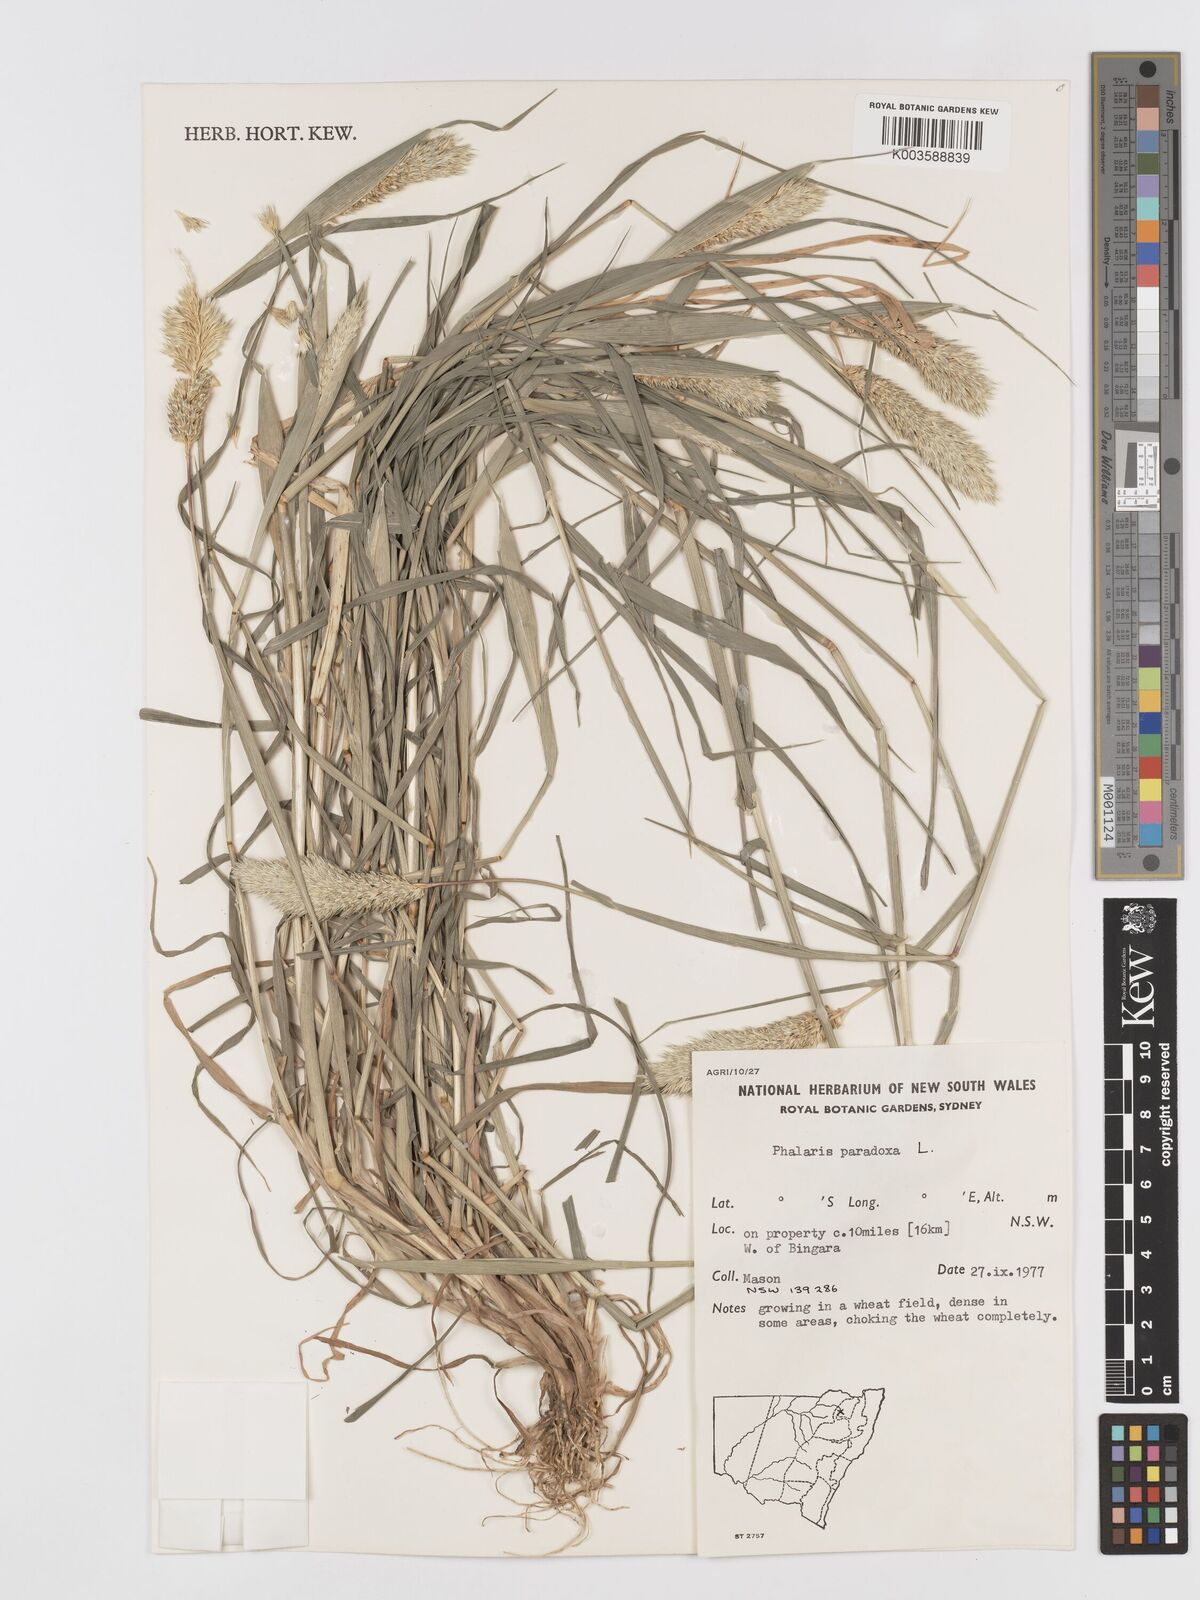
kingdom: Plantae
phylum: Tracheophyta
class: Liliopsida
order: Poales
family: Poaceae
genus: Phalaris
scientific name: Phalaris paradoxa
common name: Awned canary-grass
